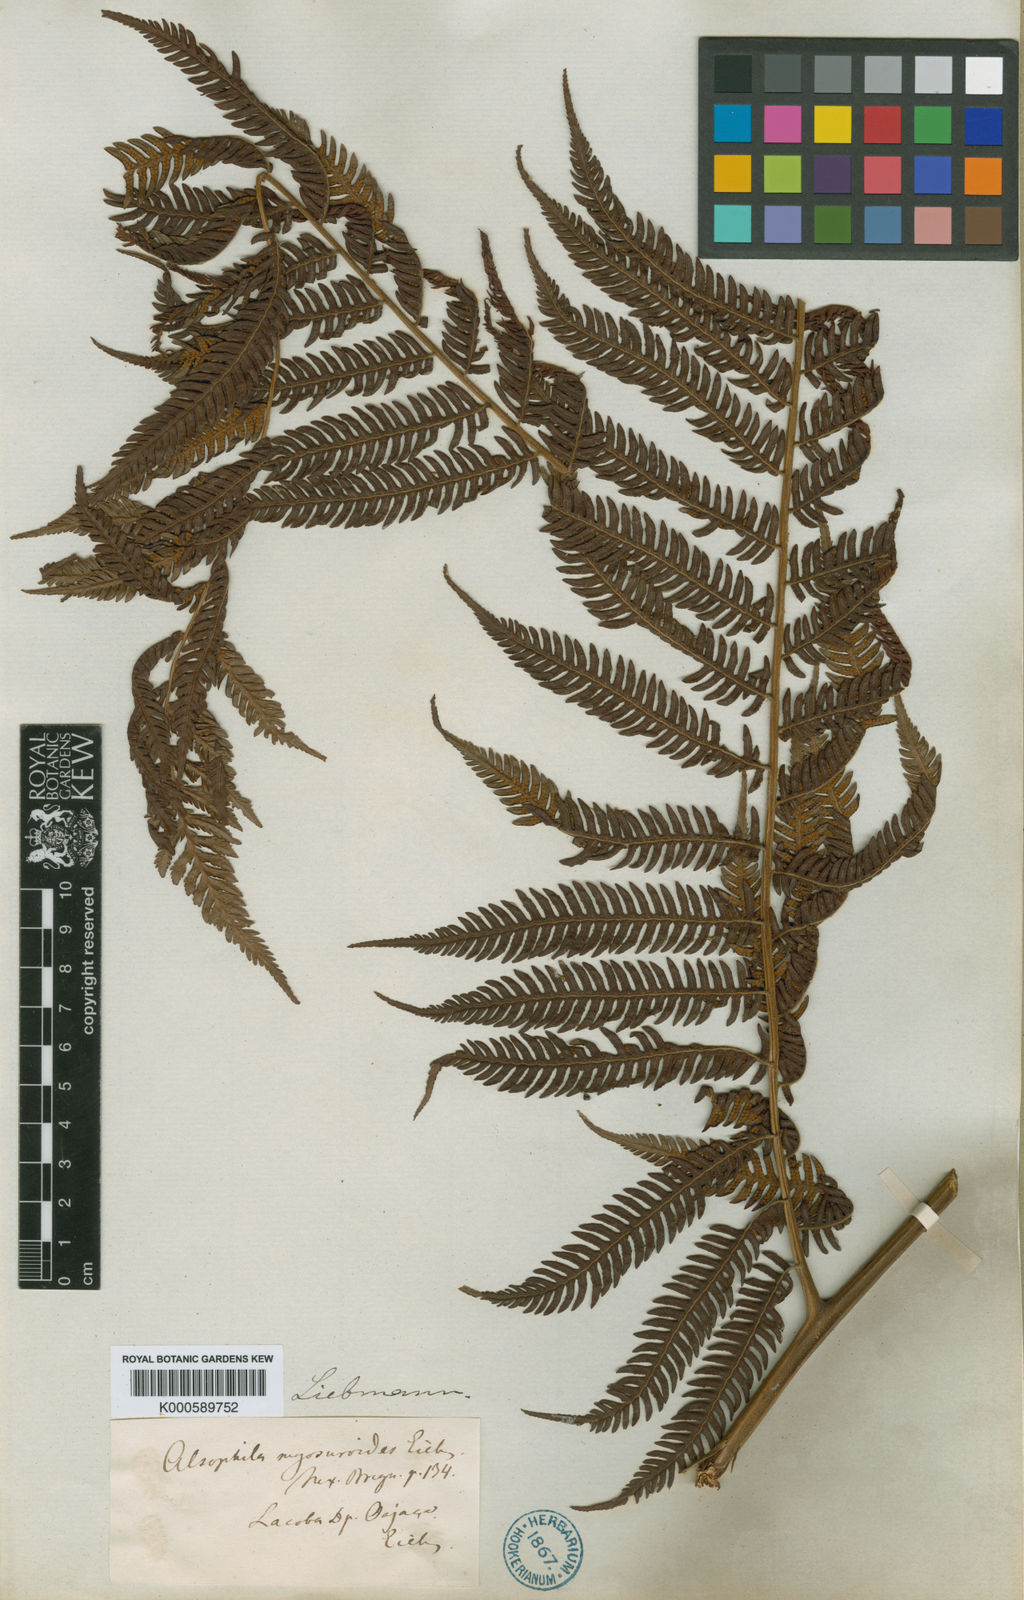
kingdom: Plantae
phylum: Tracheophyta
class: Polypodiopsida
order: Cyatheales
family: Cyatheaceae
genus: Sphaeropteris
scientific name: Sphaeropteris myosuroides
